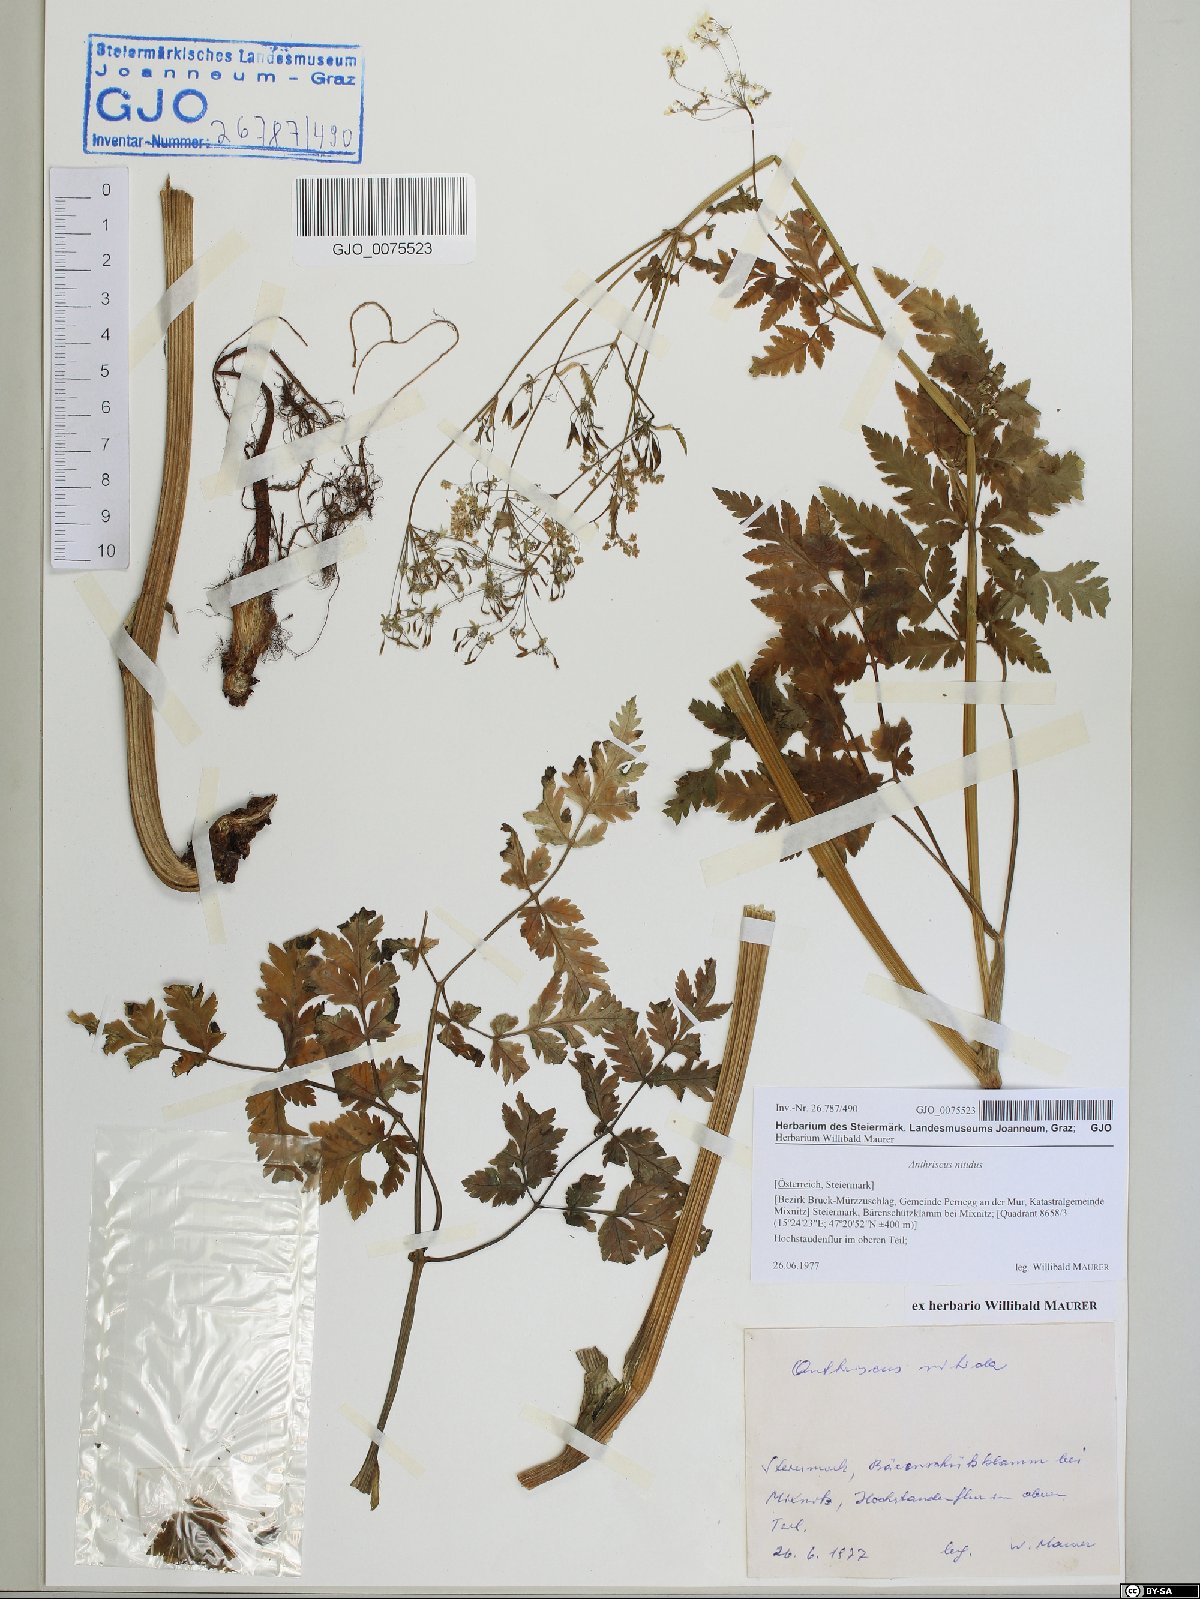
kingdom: Plantae
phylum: Tracheophyta
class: Magnoliopsida
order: Apiales
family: Apiaceae
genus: Anthriscus
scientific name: Anthriscus nitida
